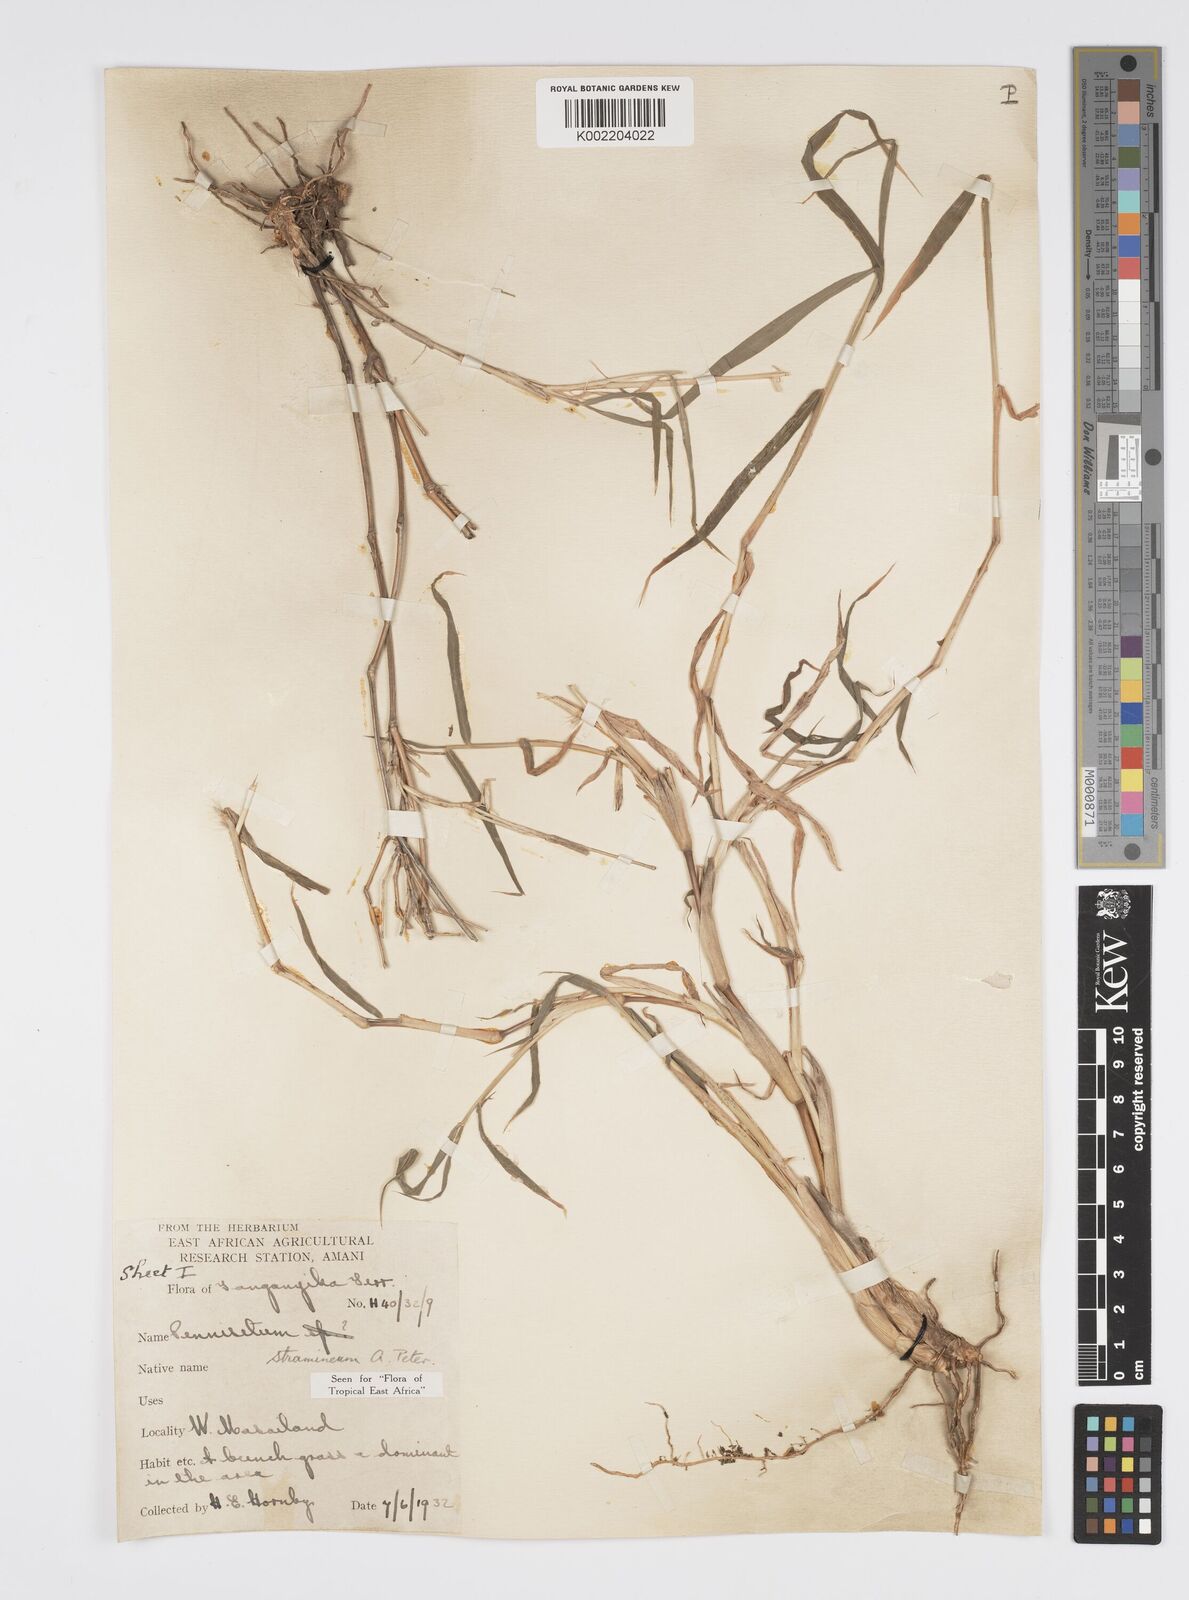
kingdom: Plantae
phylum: Tracheophyta
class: Liliopsida
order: Poales
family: Poaceae
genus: Cenchrus
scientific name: Cenchrus stramineus
